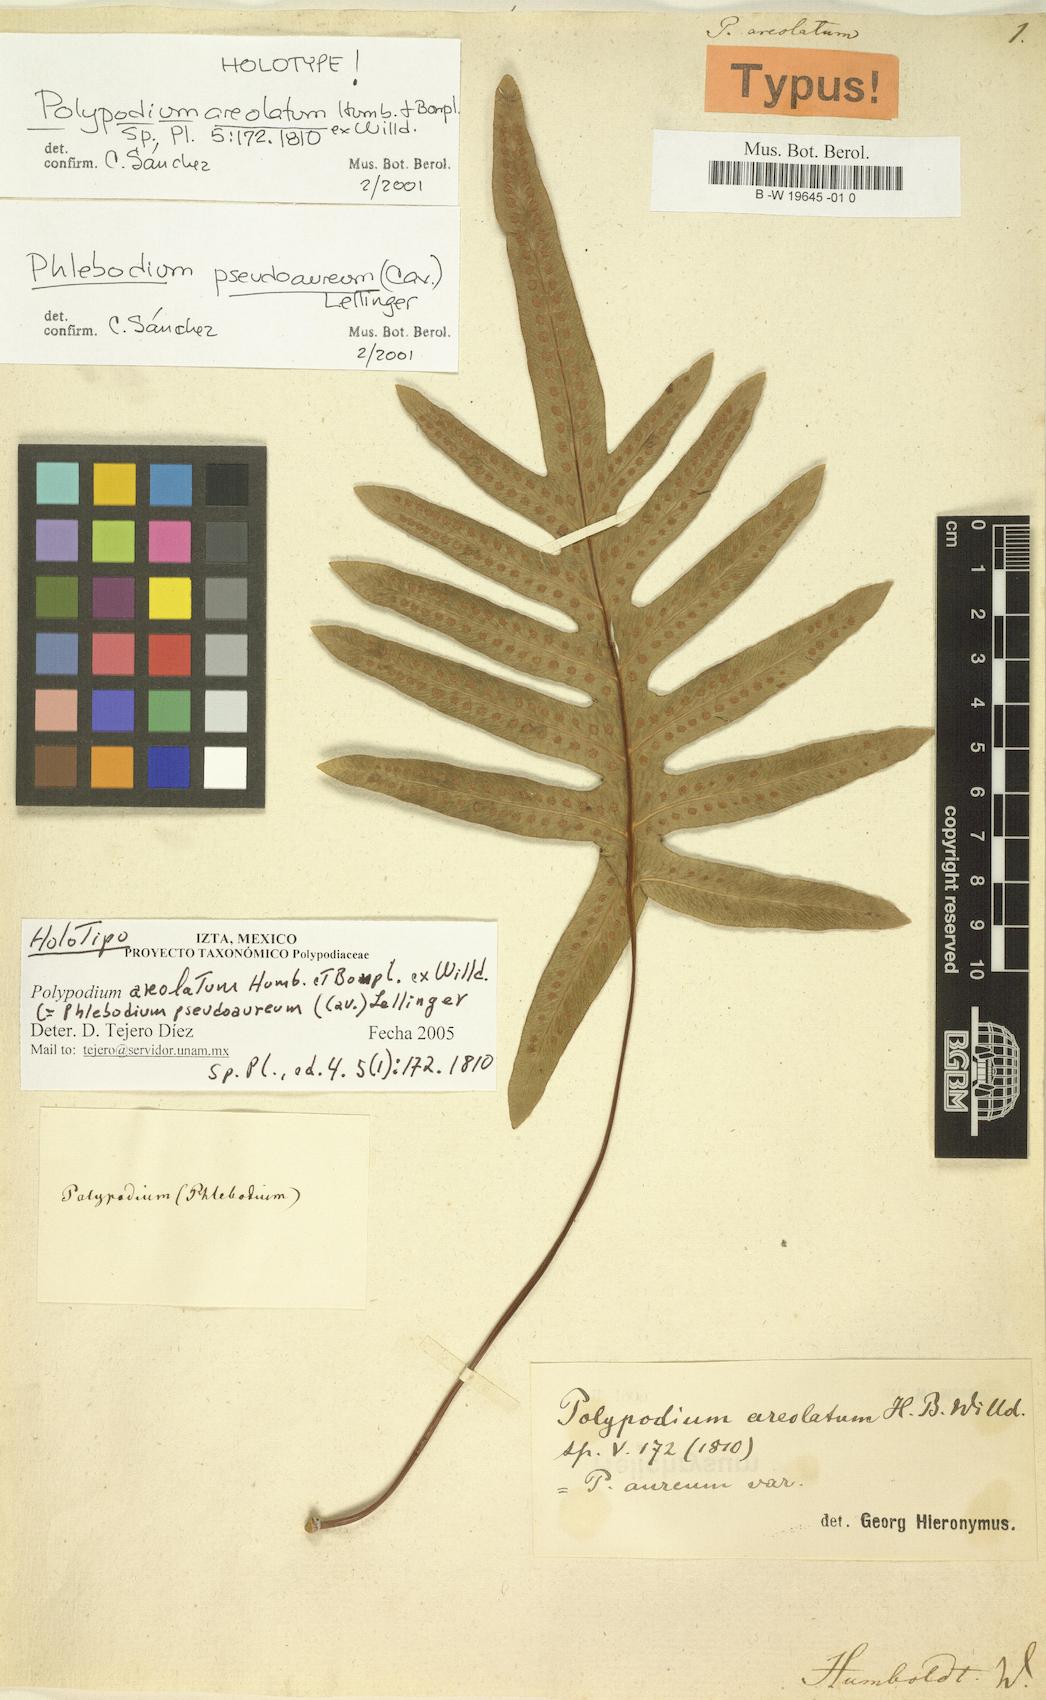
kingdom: Plantae
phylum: Tracheophyta
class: Polypodiopsida
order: Polypodiales
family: Polypodiaceae
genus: Phlebodium
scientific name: Phlebodium pseudoaureum
